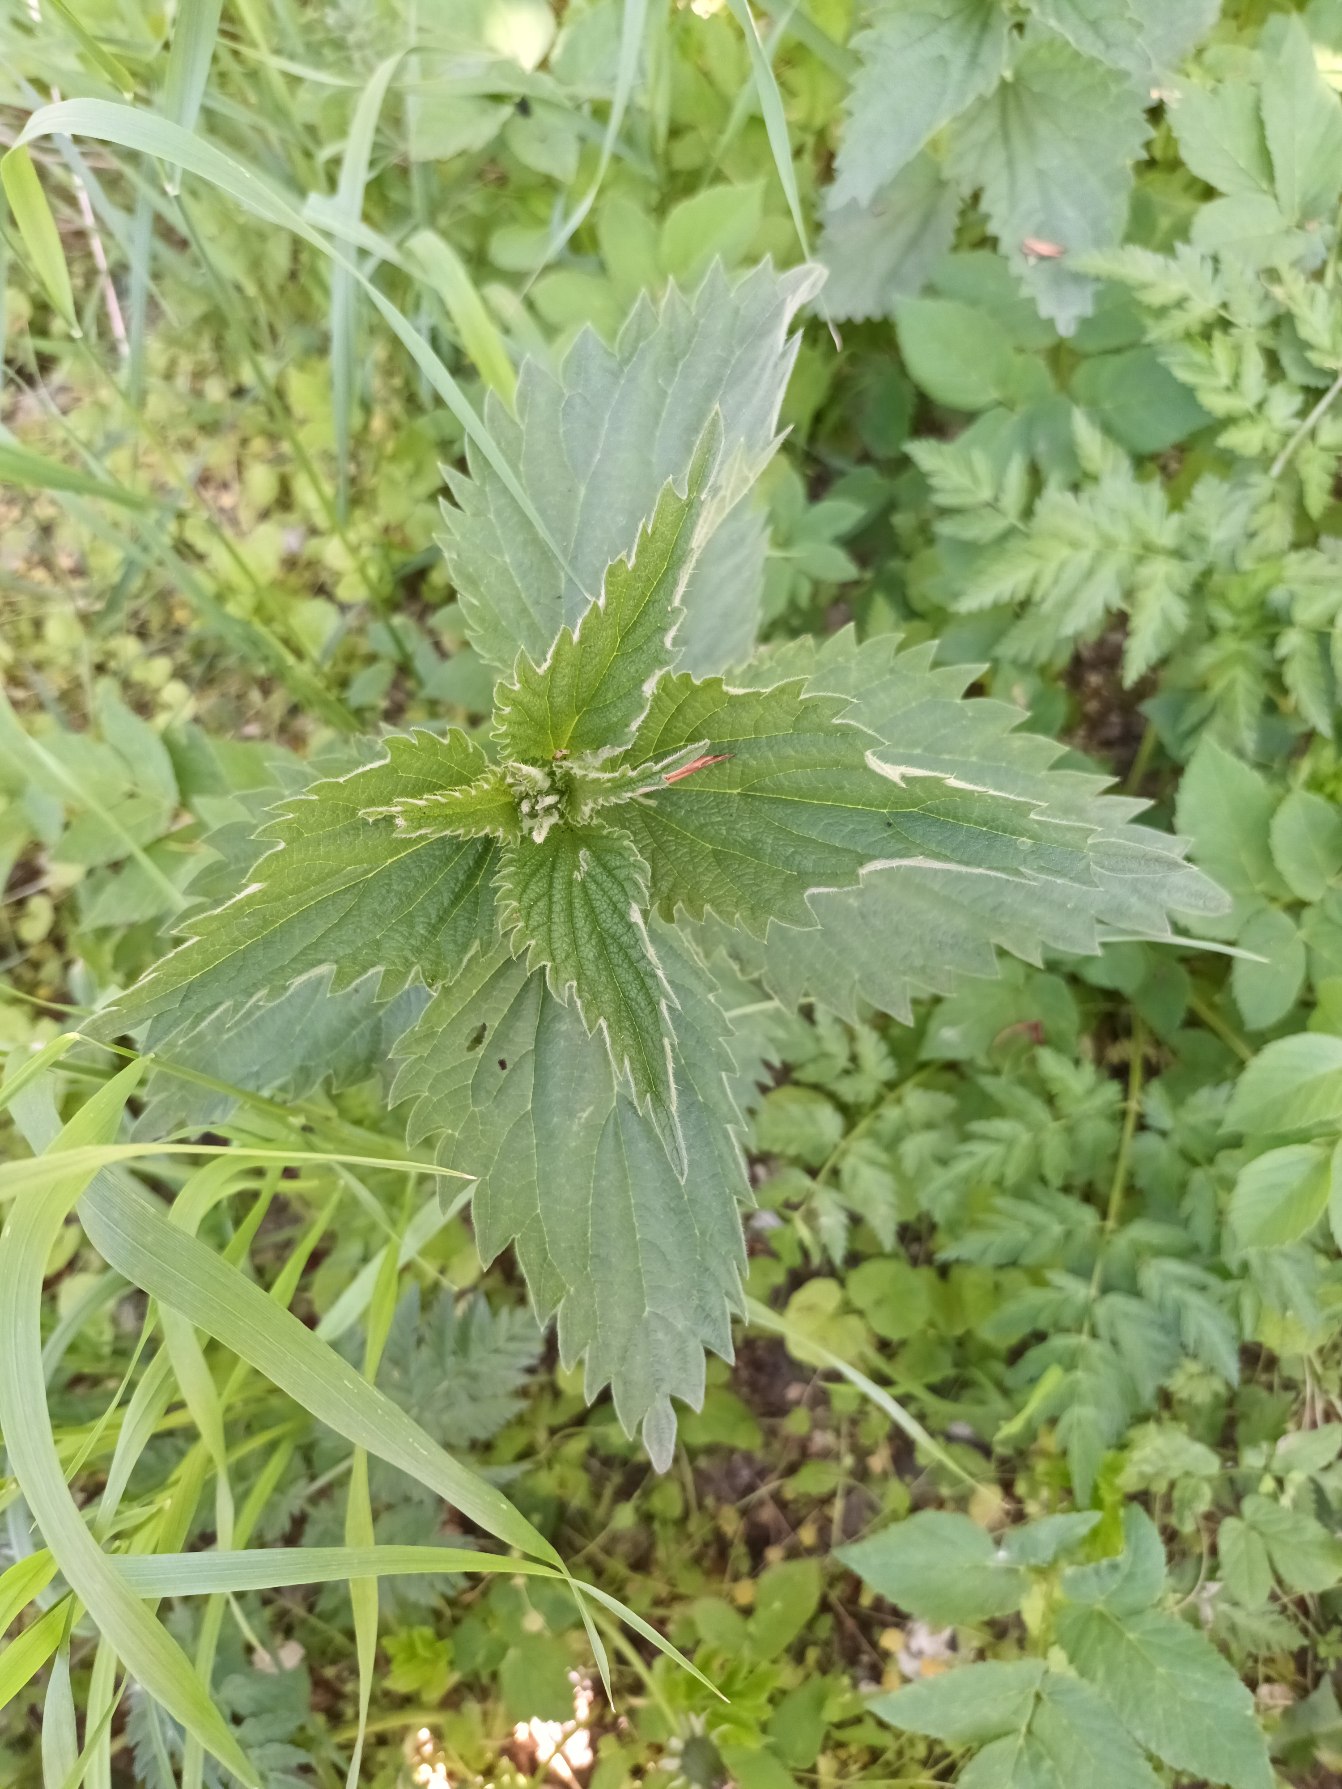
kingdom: Plantae
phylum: Tracheophyta
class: Magnoliopsida
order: Rosales
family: Urticaceae
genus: Urtica
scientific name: Urtica dioica
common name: Stor nælde
